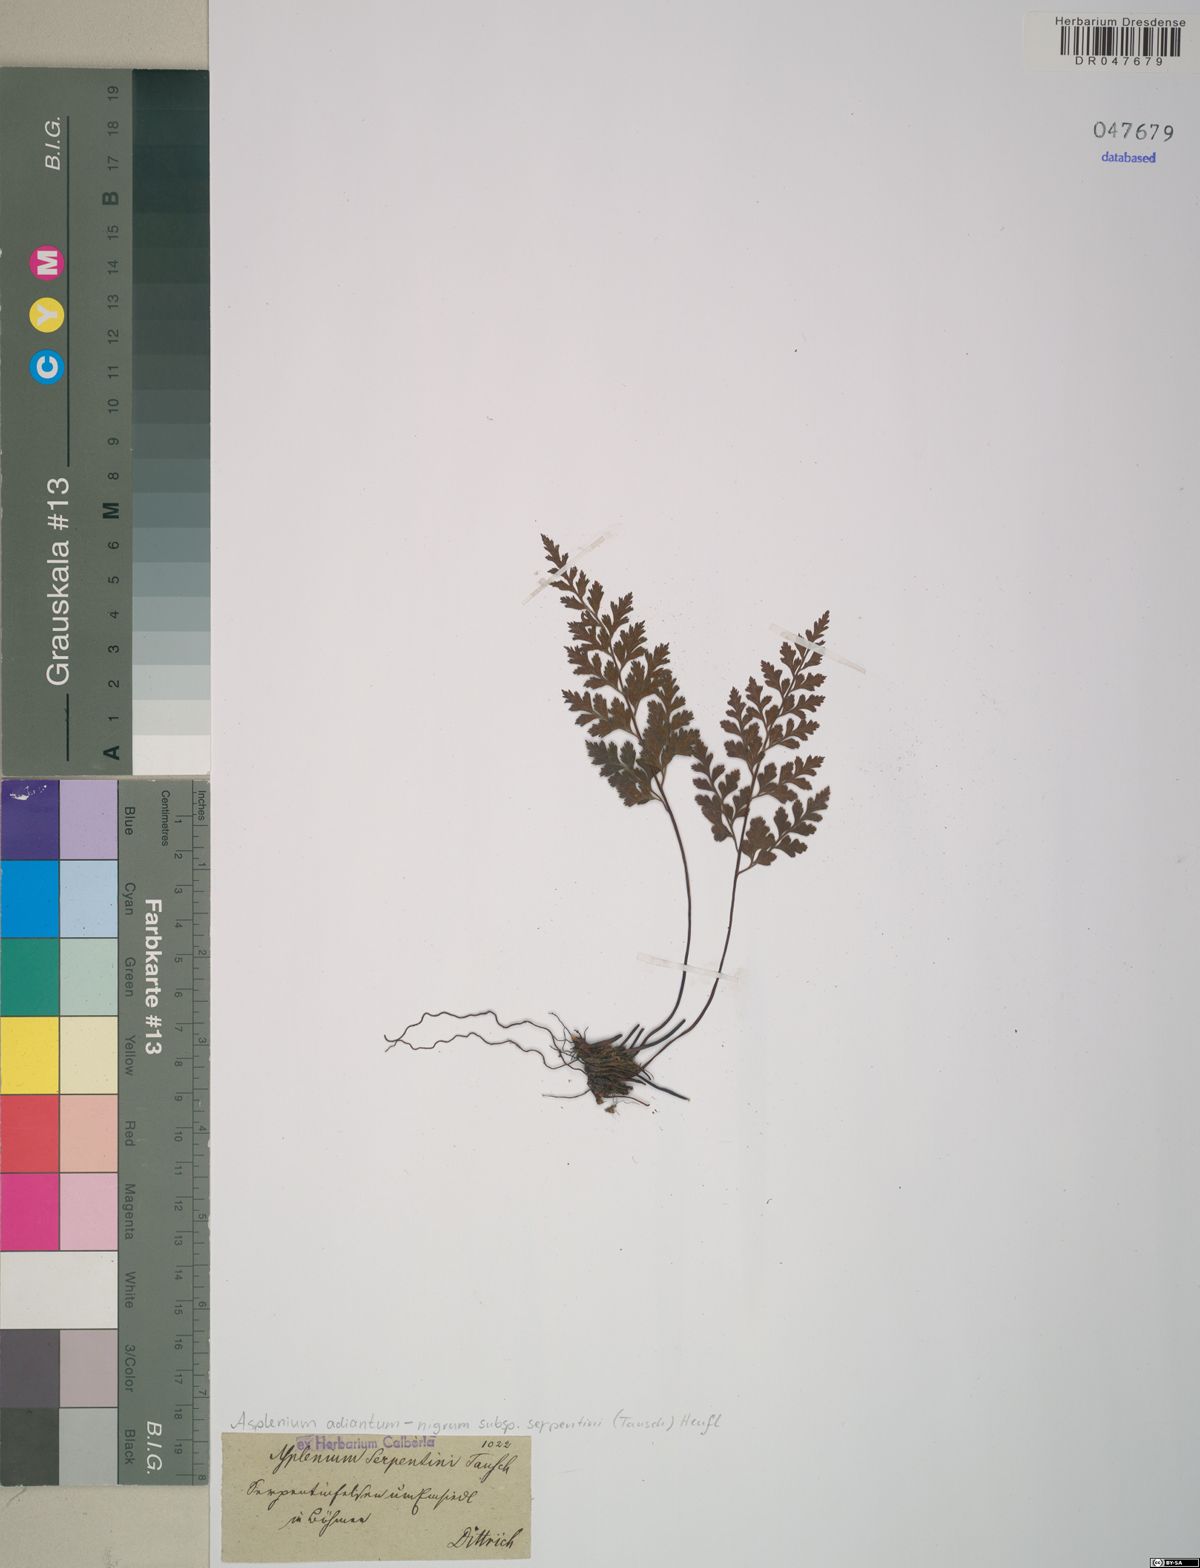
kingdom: Plantae
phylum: Tracheophyta
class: Polypodiopsida
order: Polypodiales
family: Aspleniaceae
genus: Asplenium
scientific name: Asplenium cuneifolium
